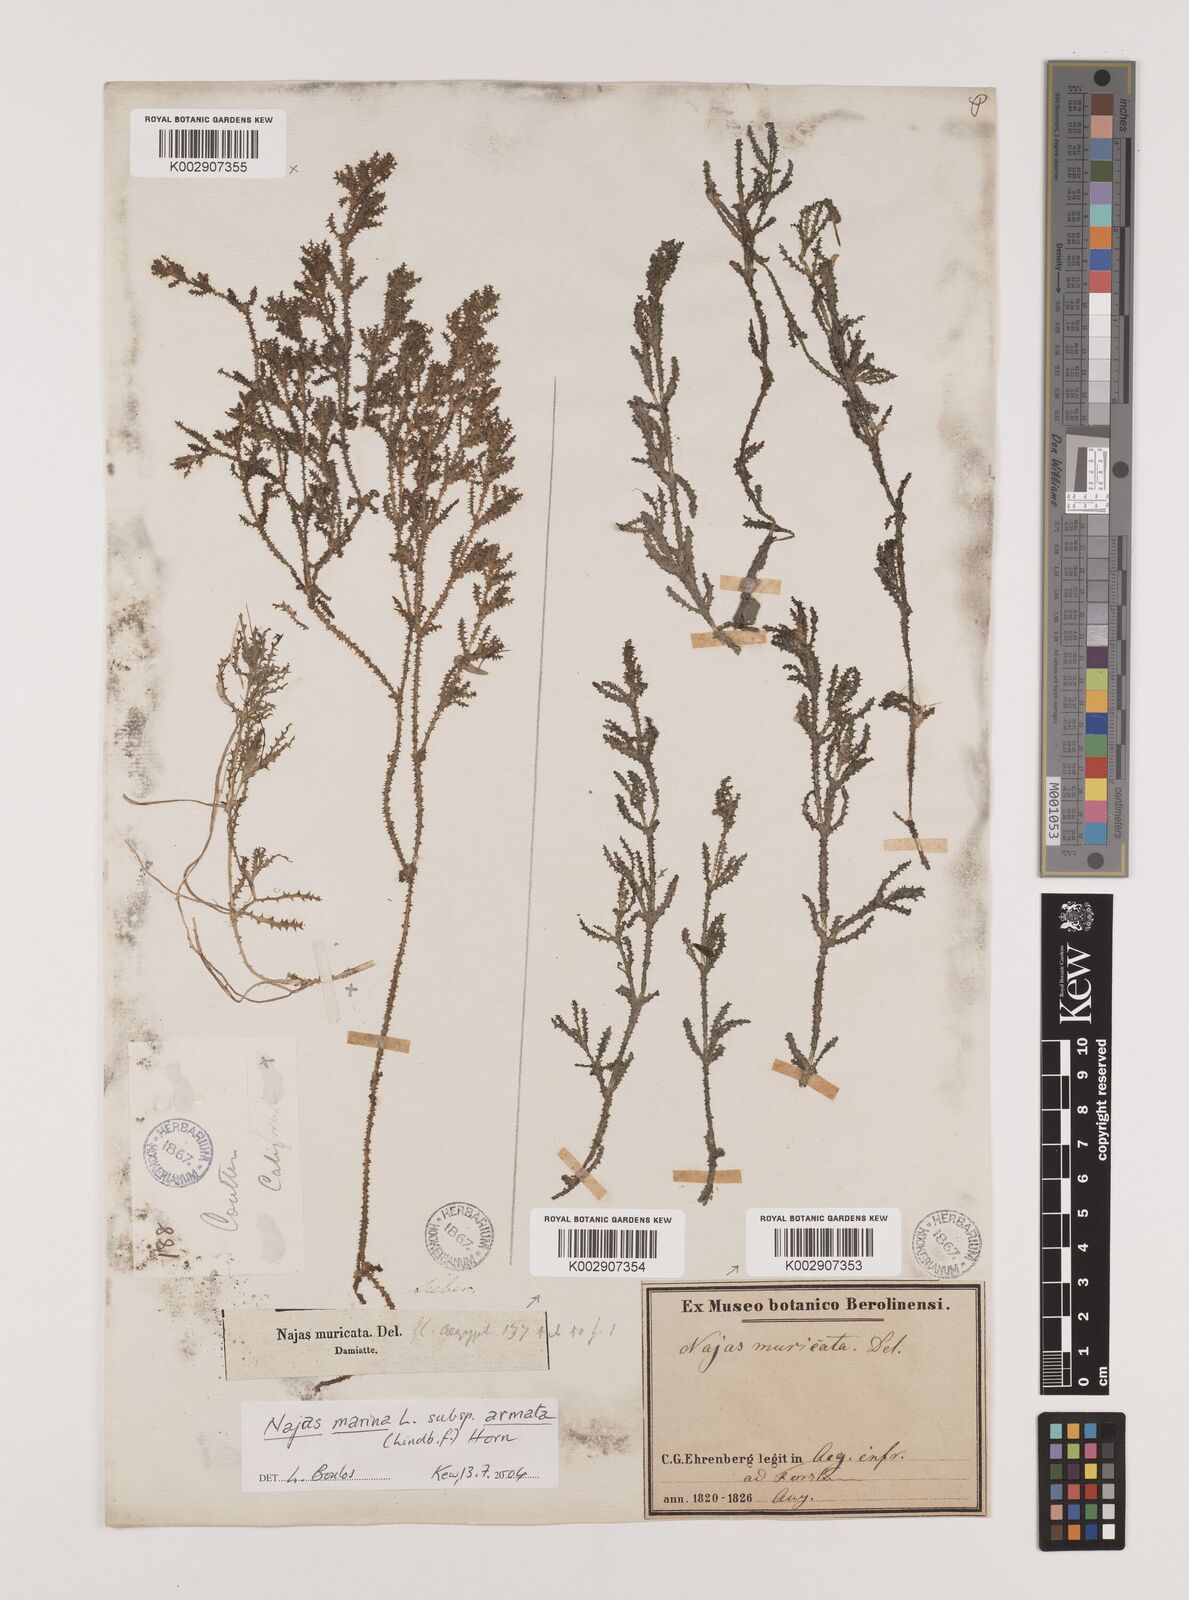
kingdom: Plantae
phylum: Tracheophyta
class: Liliopsida
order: Alismatales
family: Hydrocharitaceae
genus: Najas
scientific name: Najas marina
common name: Holly-leaved naiad
